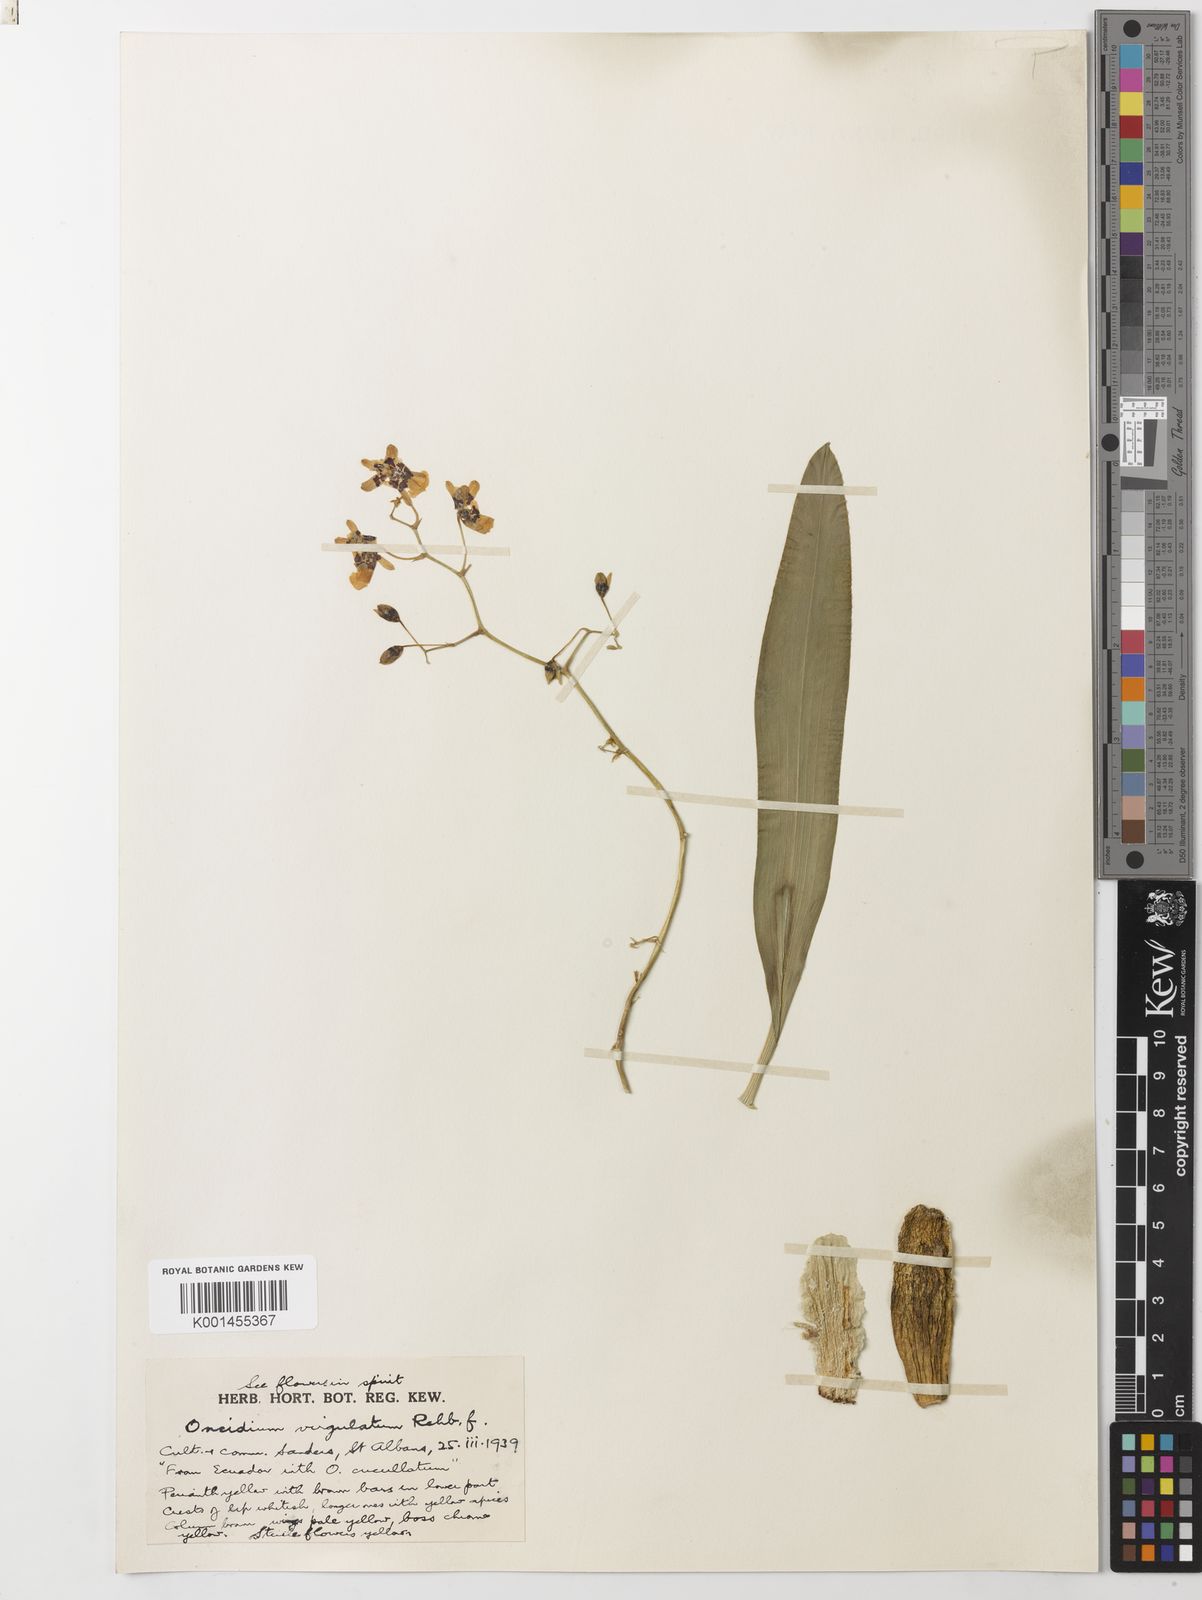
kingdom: Plantae
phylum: Tracheophyta
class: Liliopsida
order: Asparagales
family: Orchidaceae
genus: Oncidium
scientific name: Oncidium leopardinum
